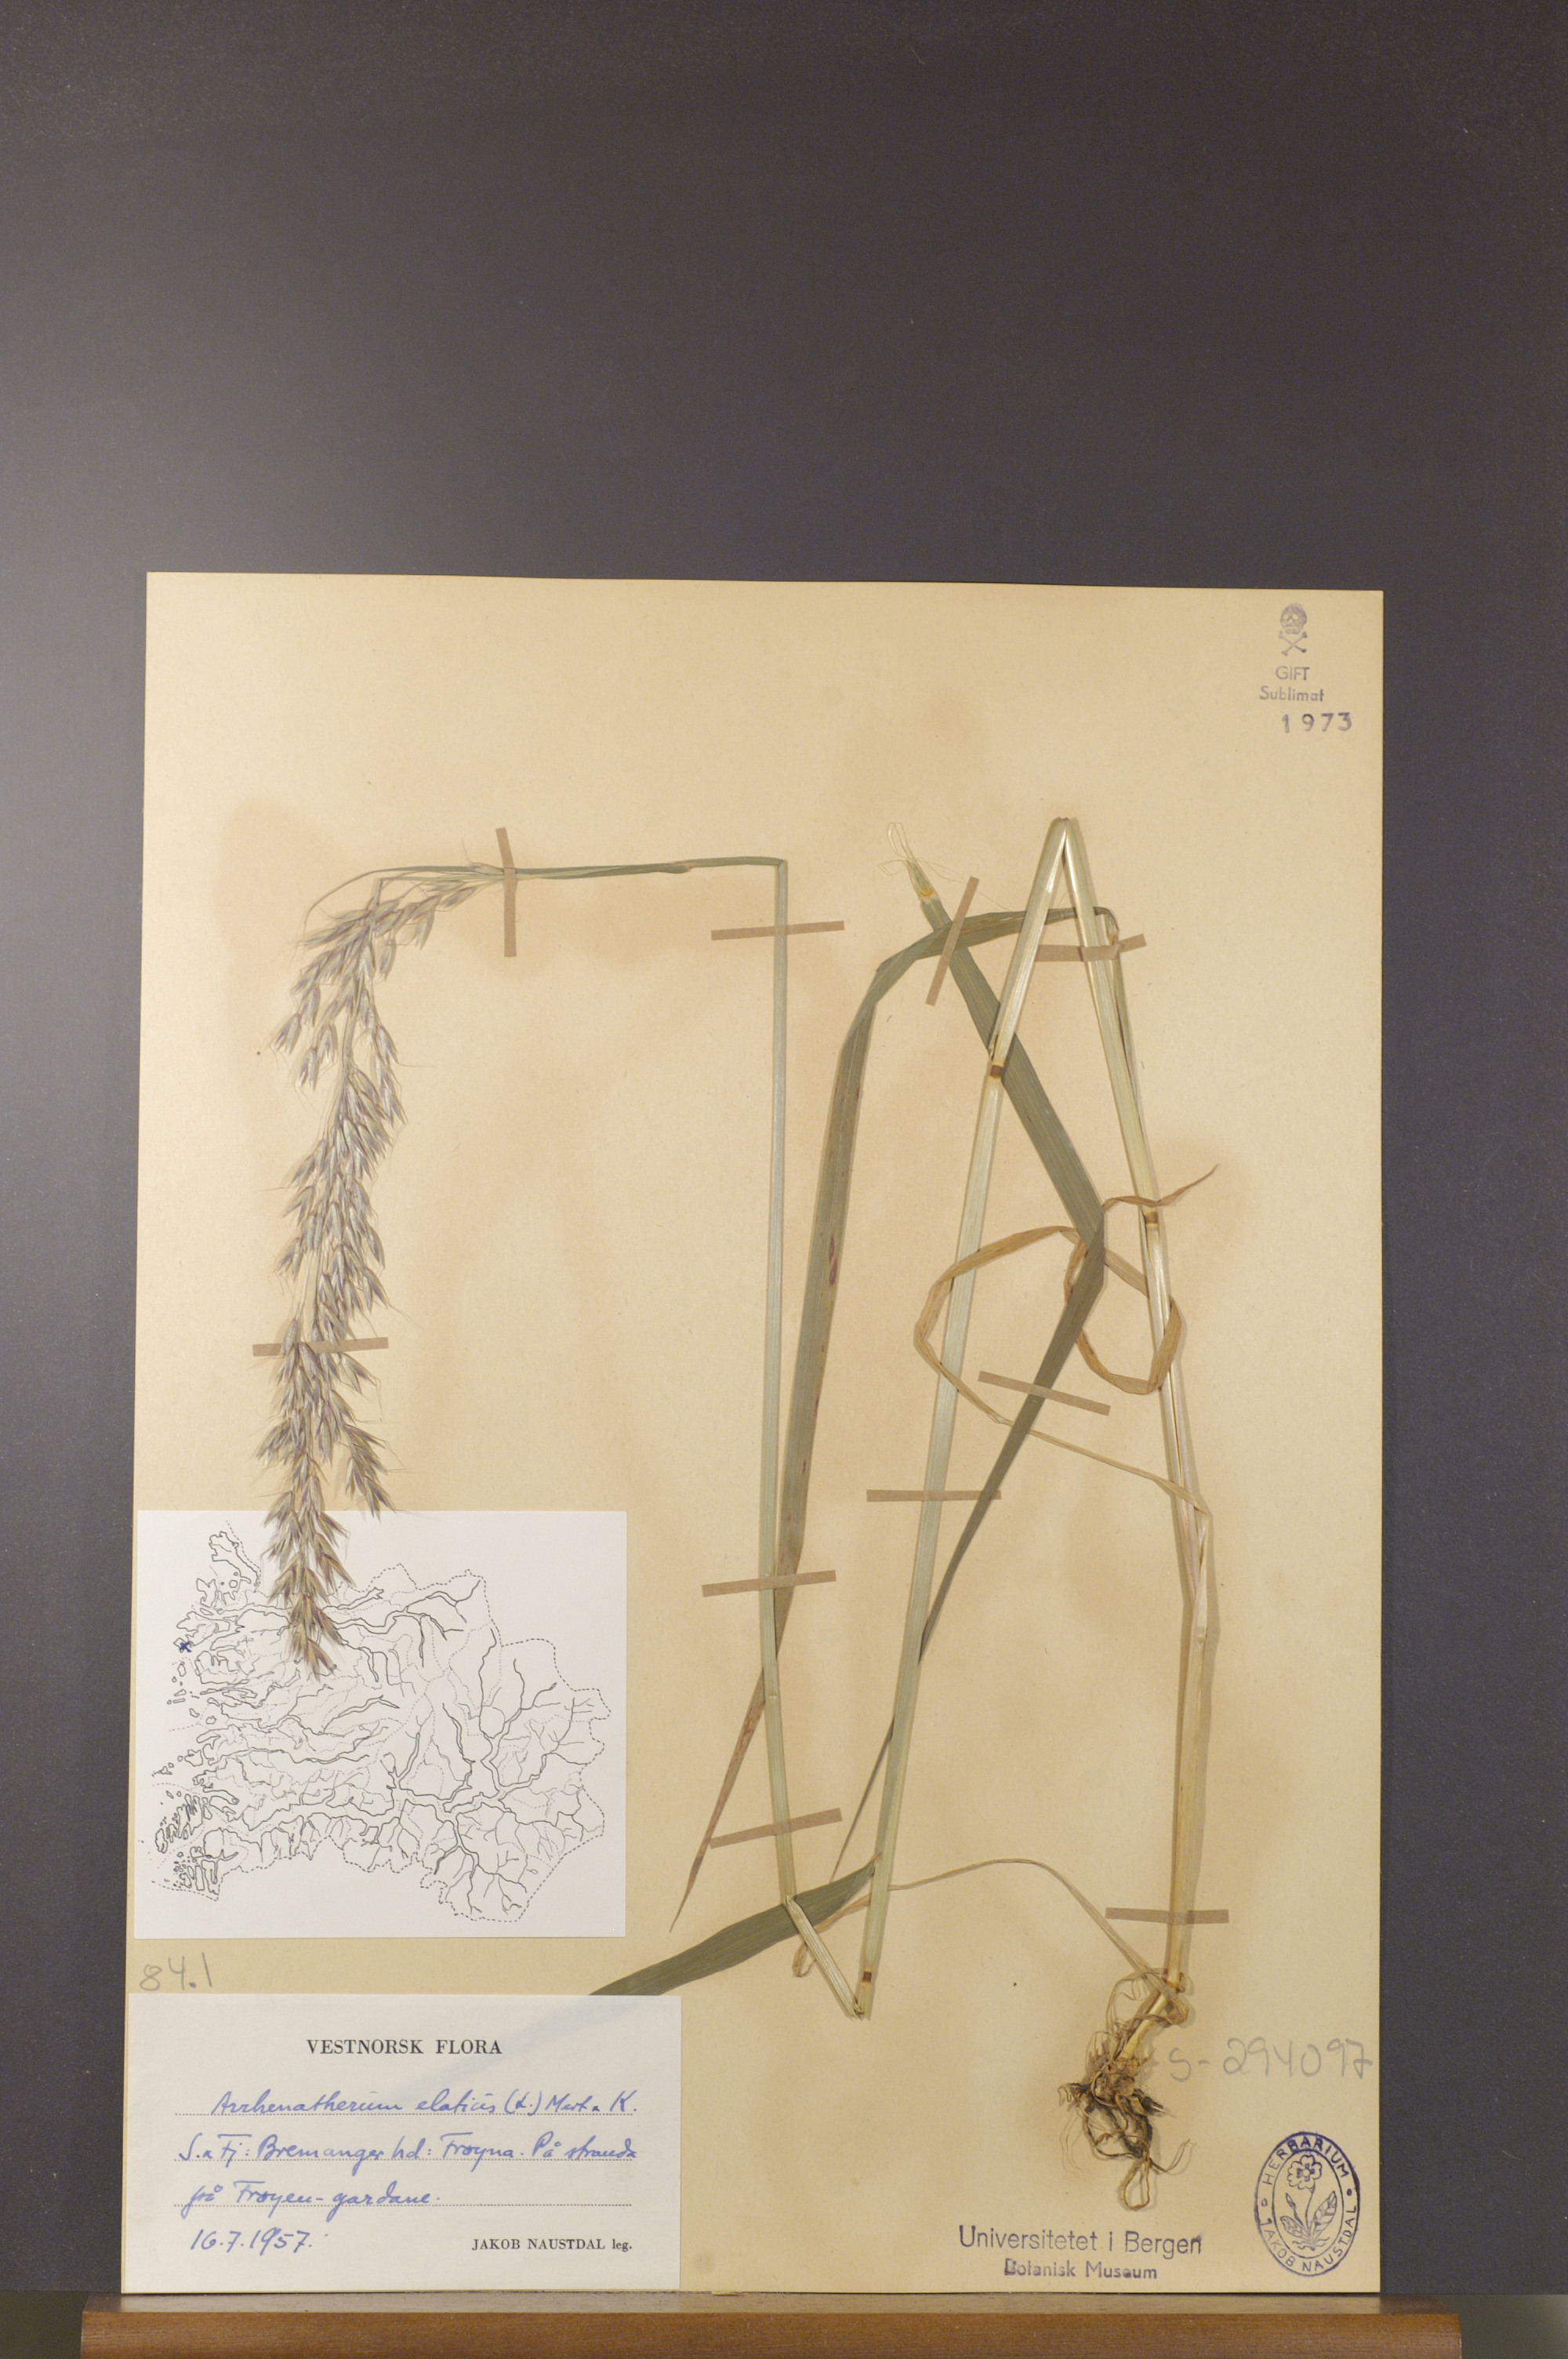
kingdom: Plantae
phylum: Tracheophyta
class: Liliopsida
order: Poales
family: Poaceae
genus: Arrhenatherum
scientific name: Arrhenatherum elatius
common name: Tall oatgrass
